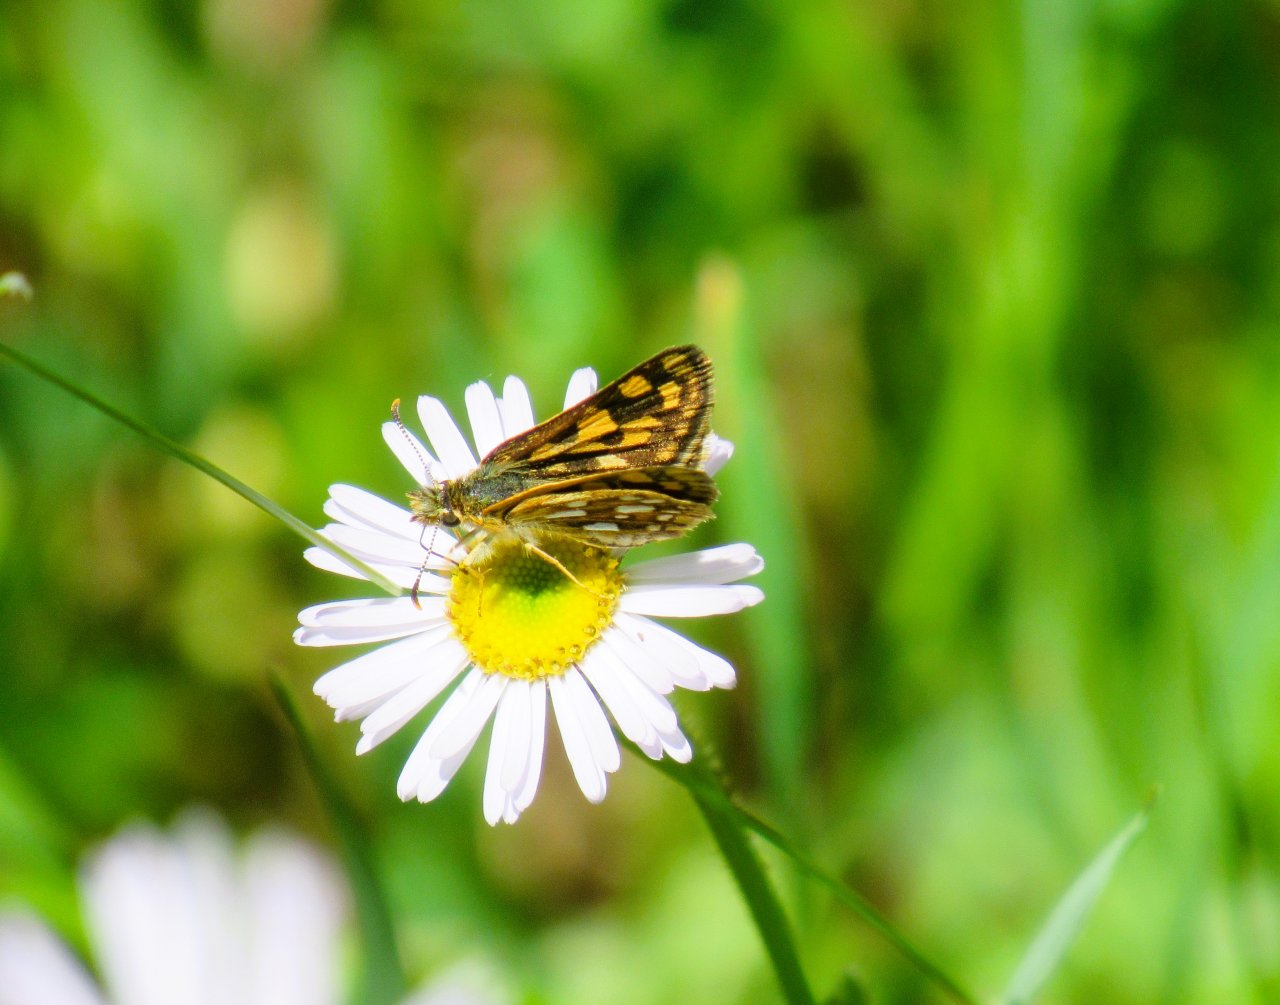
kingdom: Animalia
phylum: Arthropoda
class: Insecta
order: Lepidoptera
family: Hesperiidae
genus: Carterocephalus
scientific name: Carterocephalus palaemon
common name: Chequered Skipper
